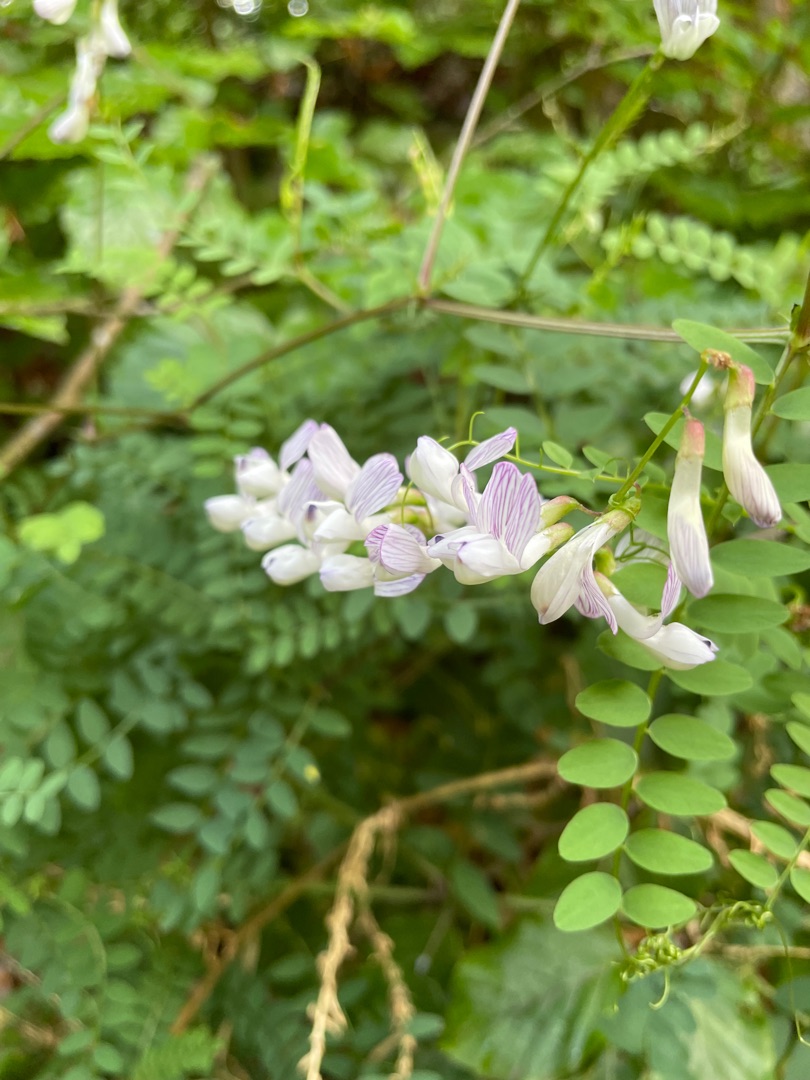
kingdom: Plantae
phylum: Tracheophyta
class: Magnoliopsida
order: Fabales
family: Fabaceae
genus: Vicia
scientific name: Vicia sylvatica
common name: Skov-vikke
